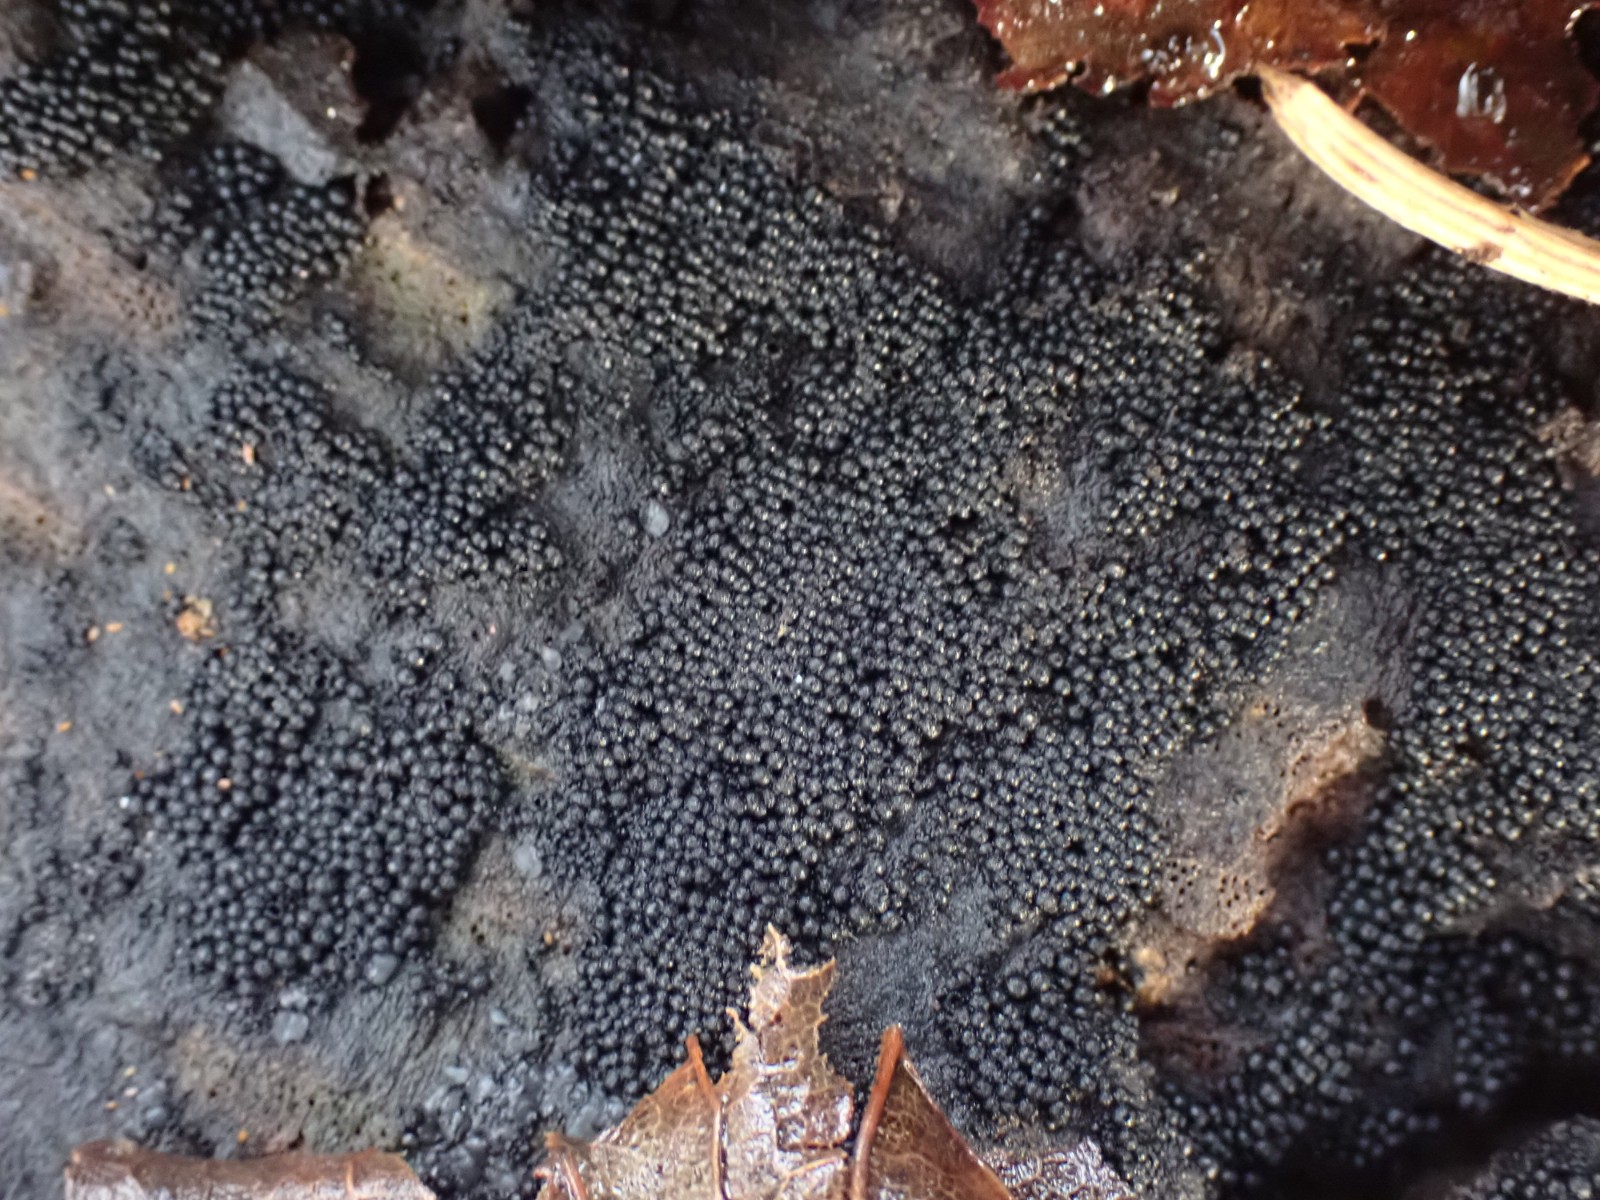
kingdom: Fungi
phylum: Ascomycota
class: Sordariomycetes
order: Sordariales
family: Helminthosphaeriaceae
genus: Ruzenia
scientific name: Ruzenia spermoides
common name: glat børstekerne
